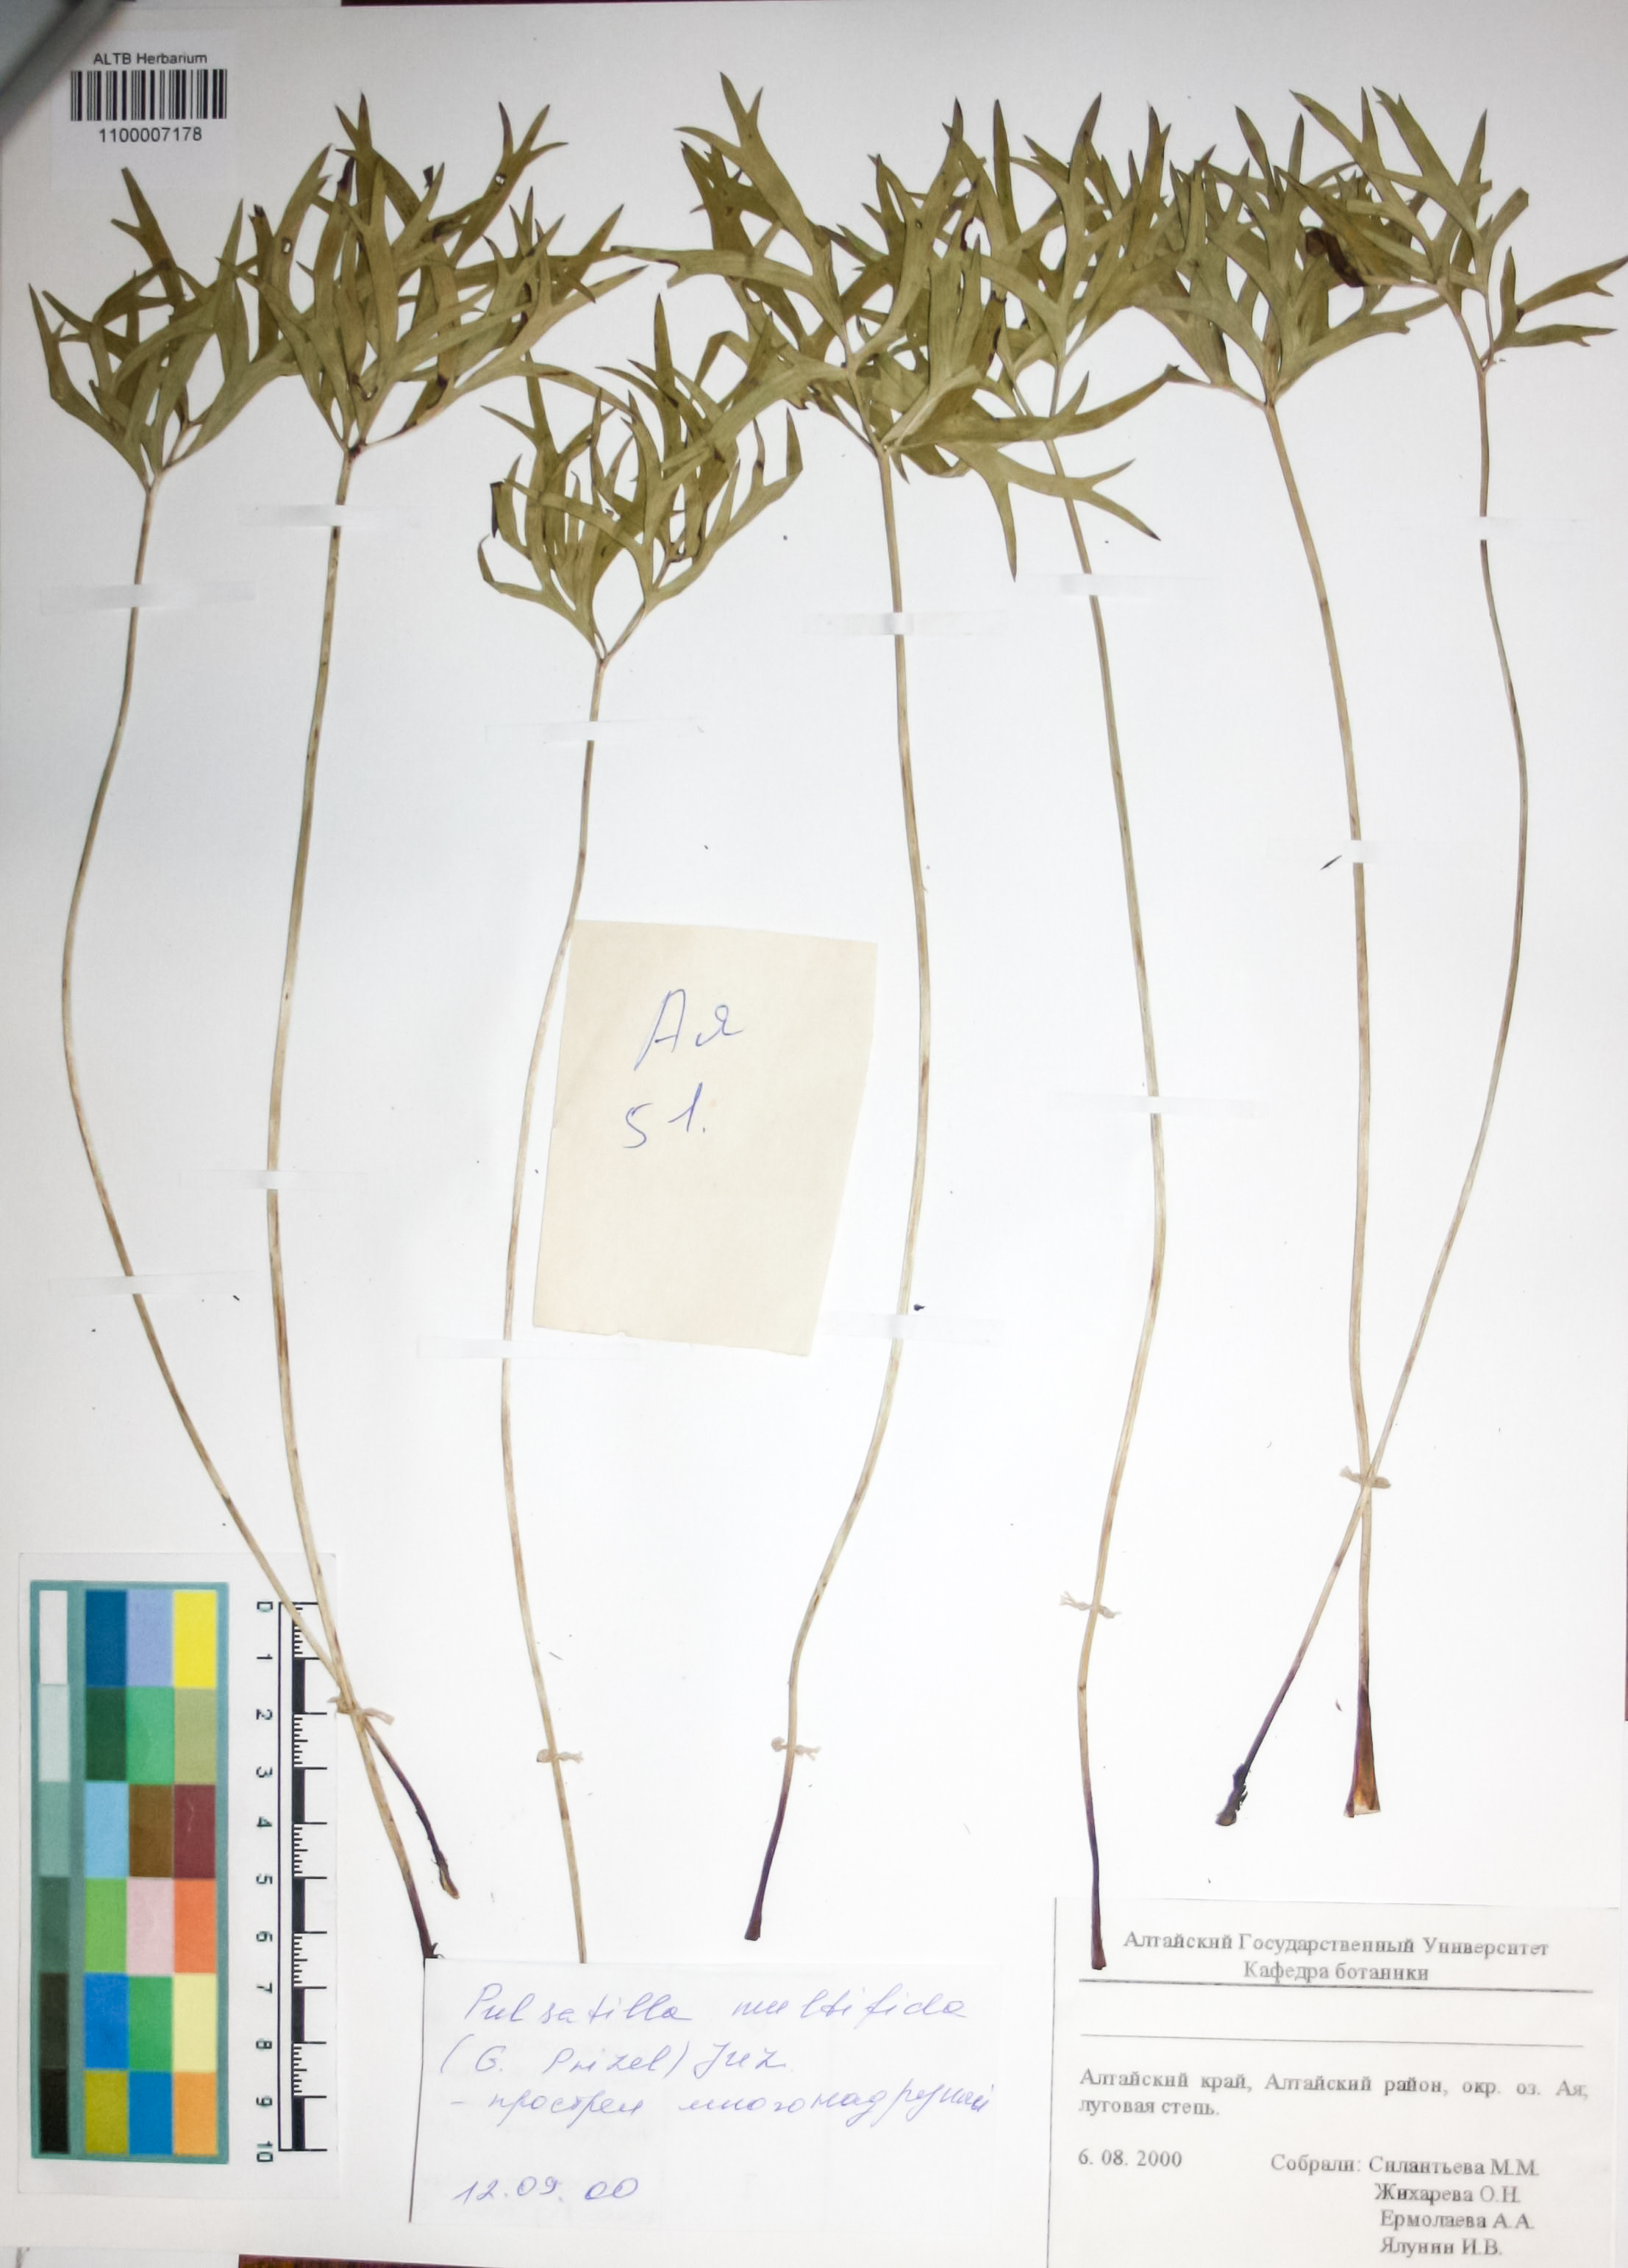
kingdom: Plantae
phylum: Tracheophyta
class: Magnoliopsida
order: Ranunculales
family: Ranunculaceae
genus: Pulsatilla
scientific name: Pulsatilla patens
